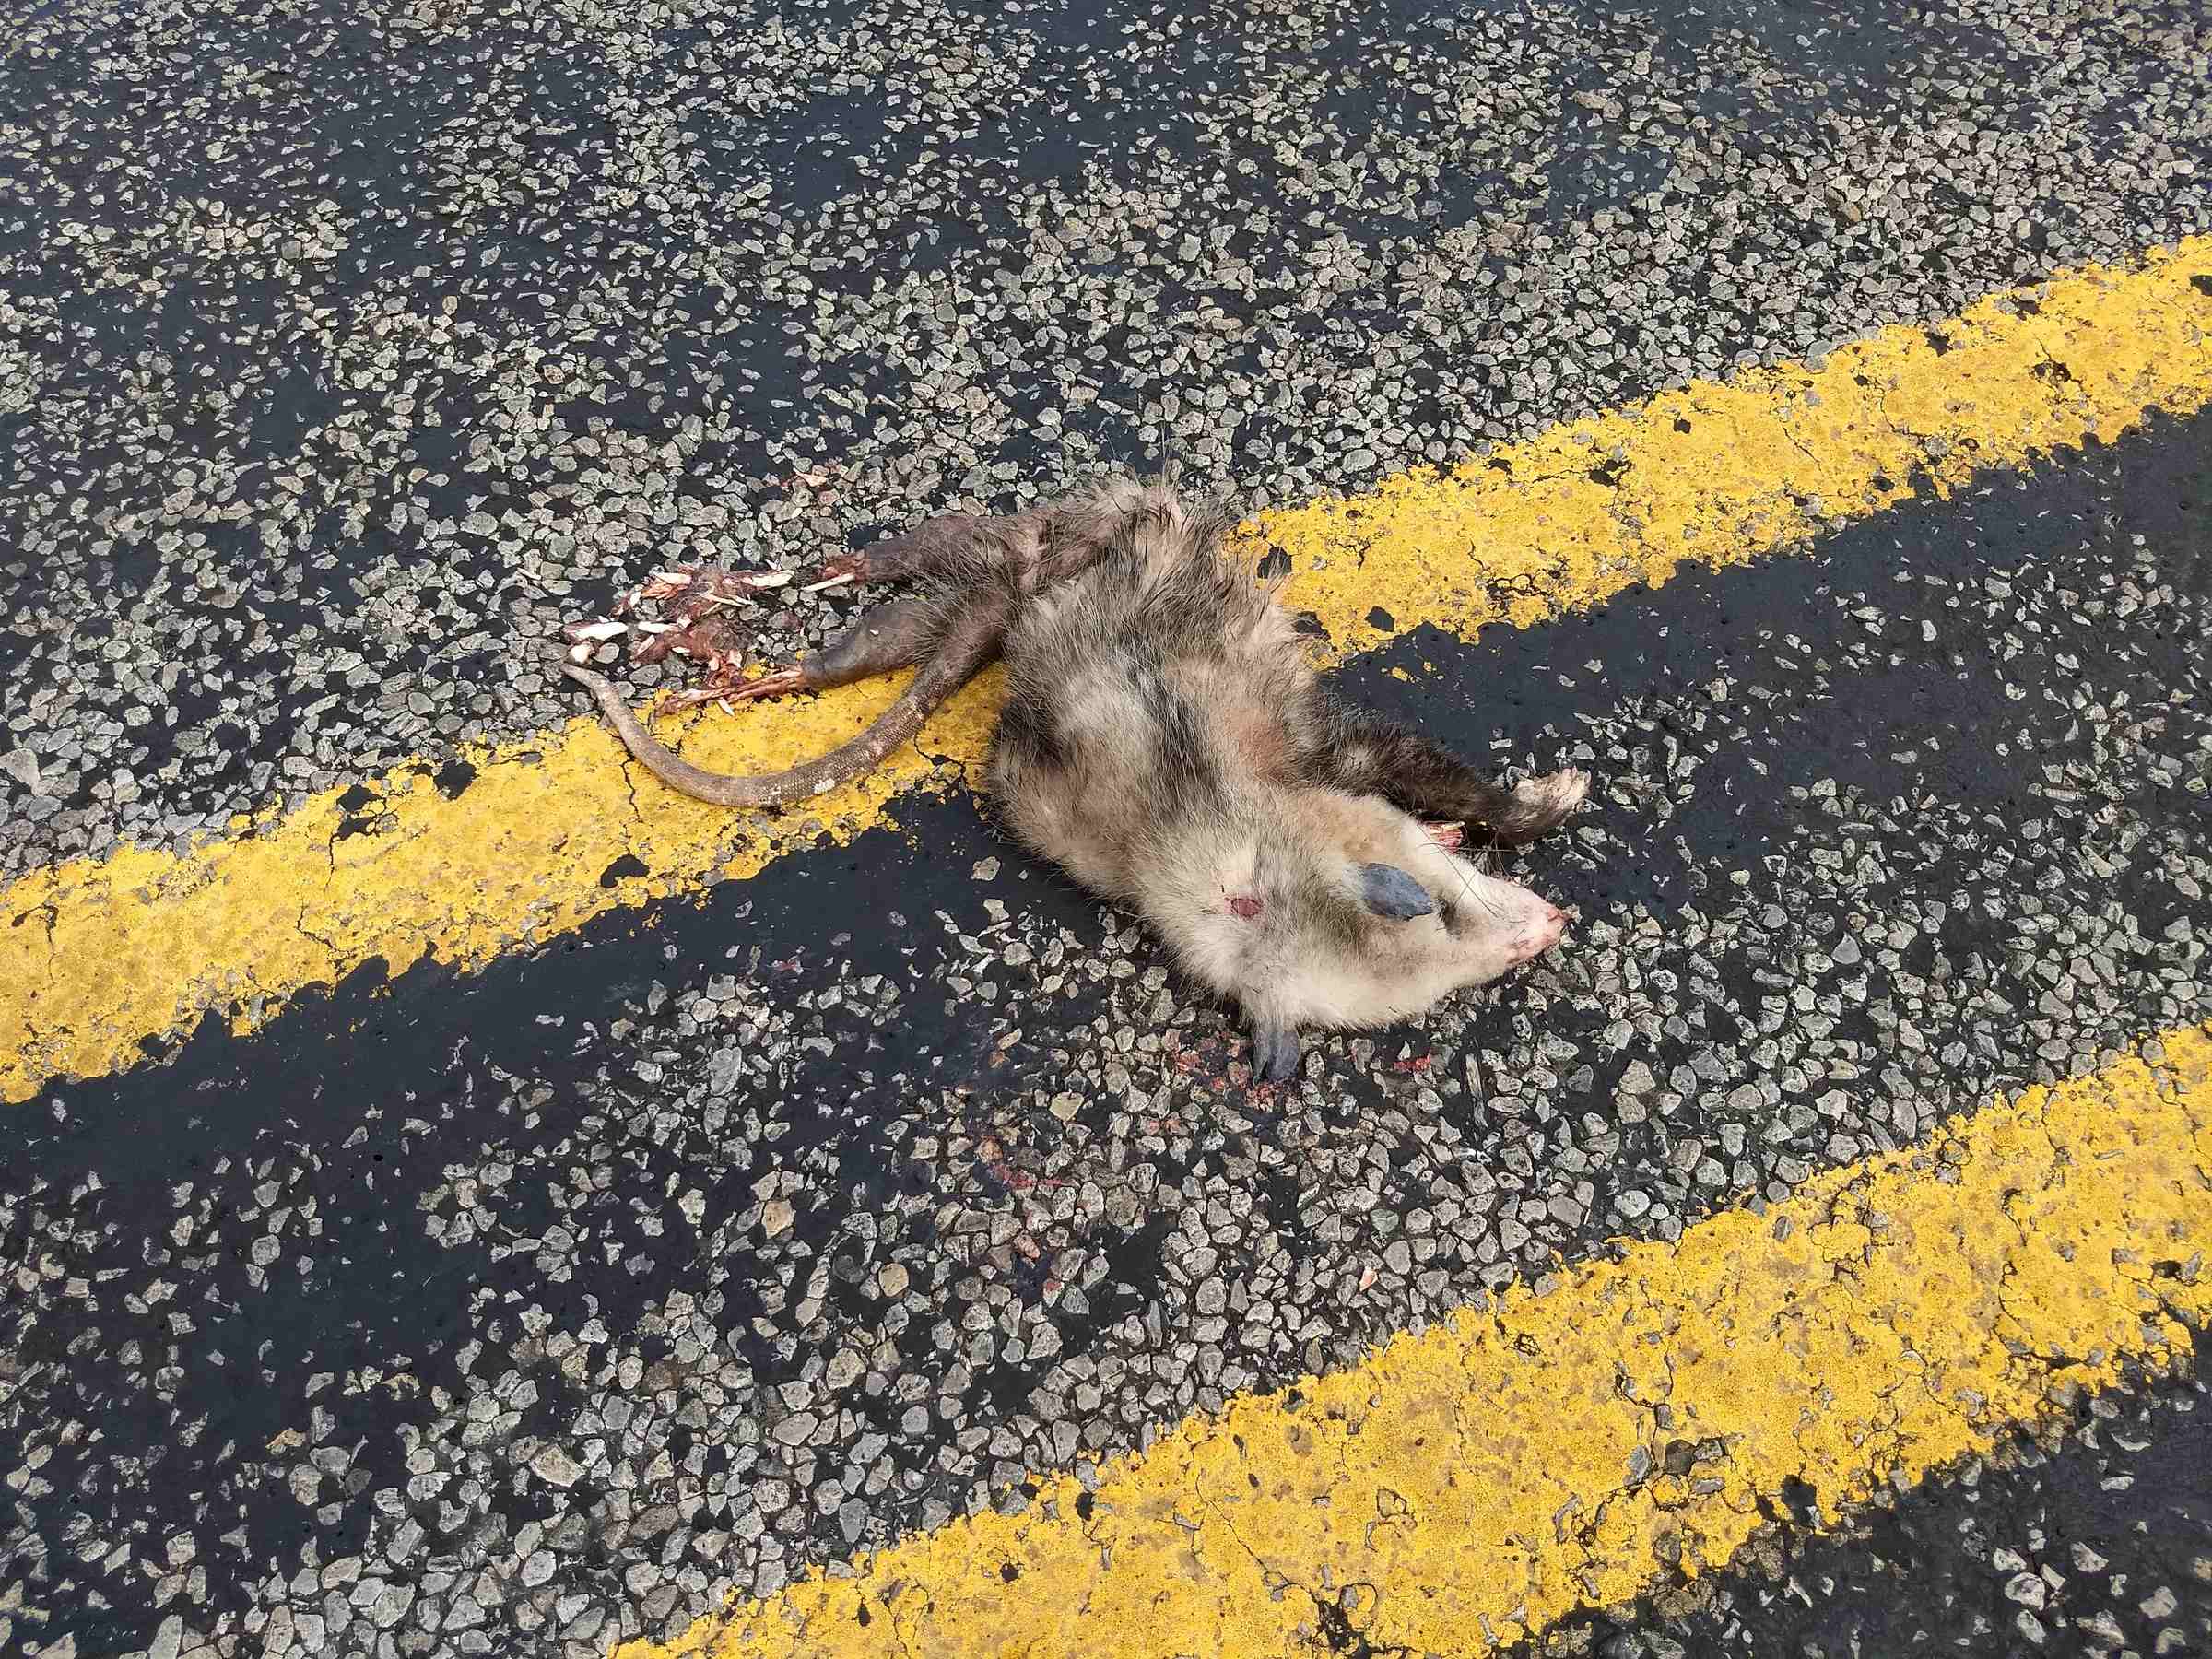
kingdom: Animalia
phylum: Chordata
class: Mammalia
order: Didelphimorphia
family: Didelphidae
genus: Didelphis
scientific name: Didelphis virginiana
